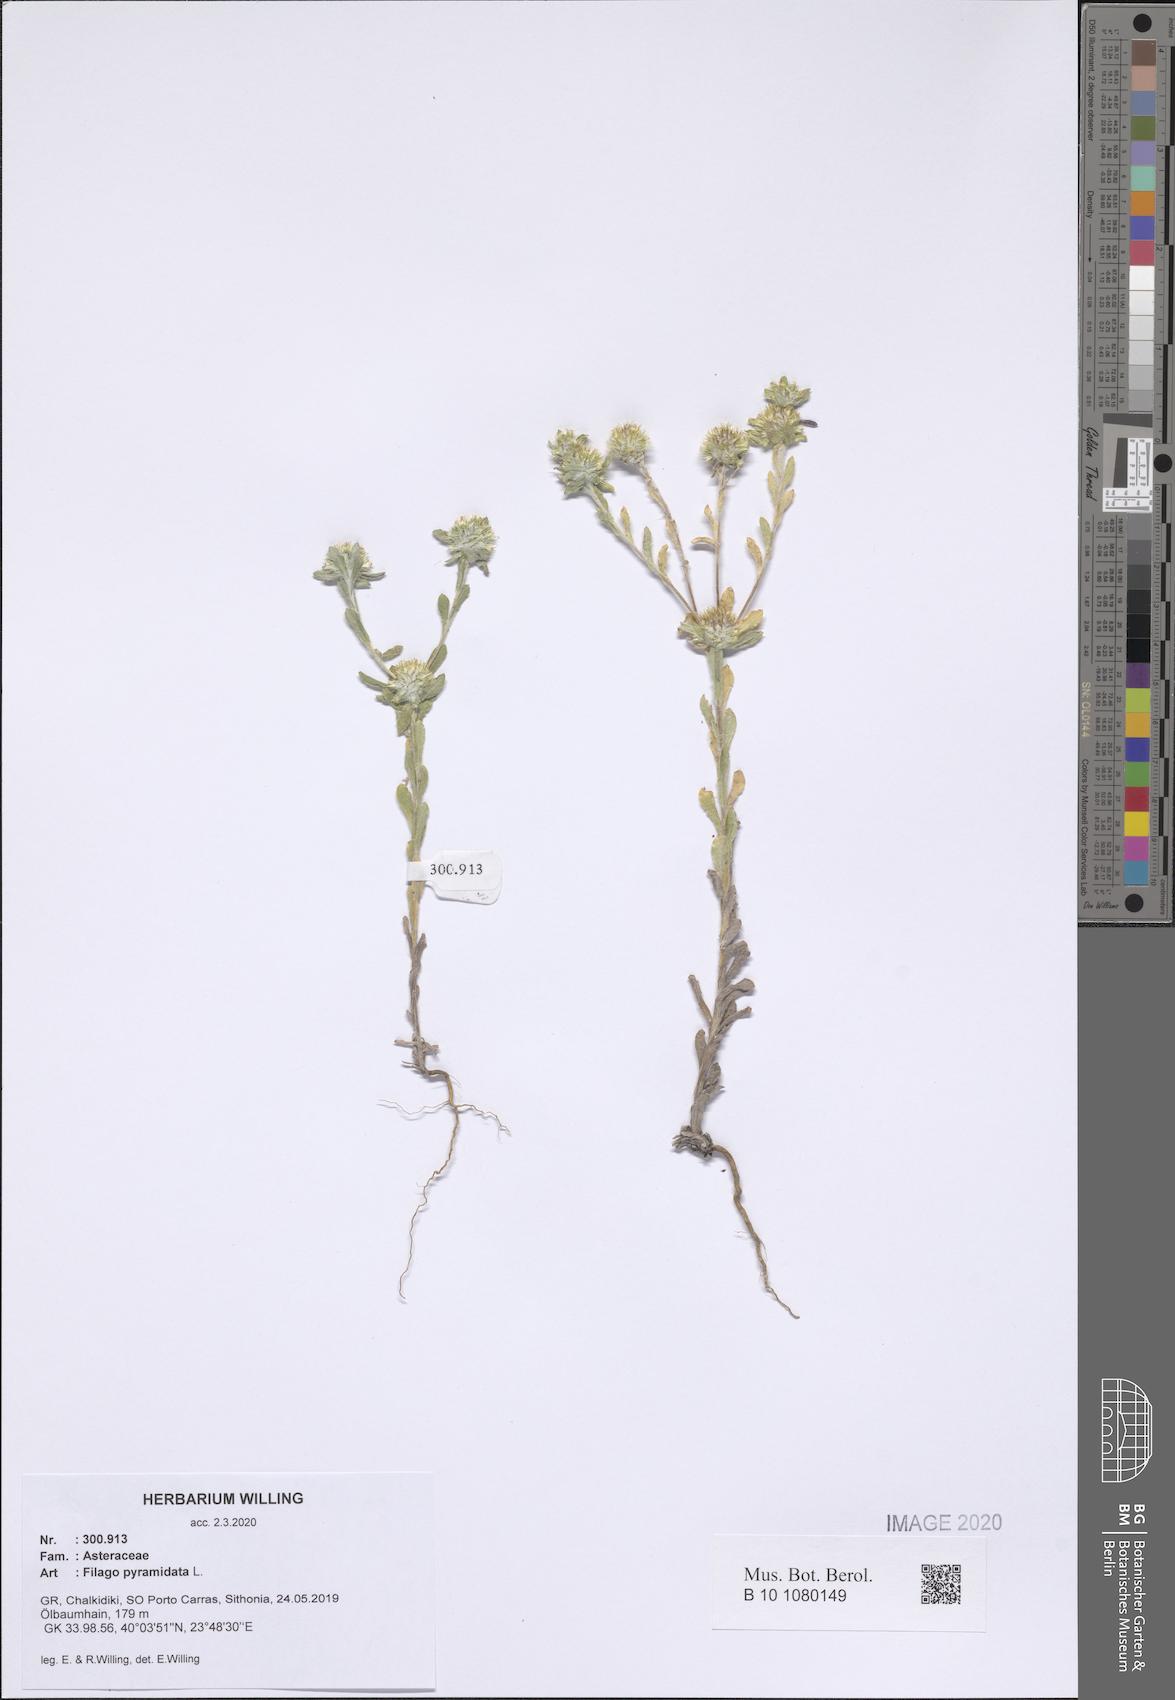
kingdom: Plantae
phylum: Tracheophyta
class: Magnoliopsida
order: Asterales
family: Asteraceae
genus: Filago
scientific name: Filago pyramidata
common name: Broad-leaved cudweed
